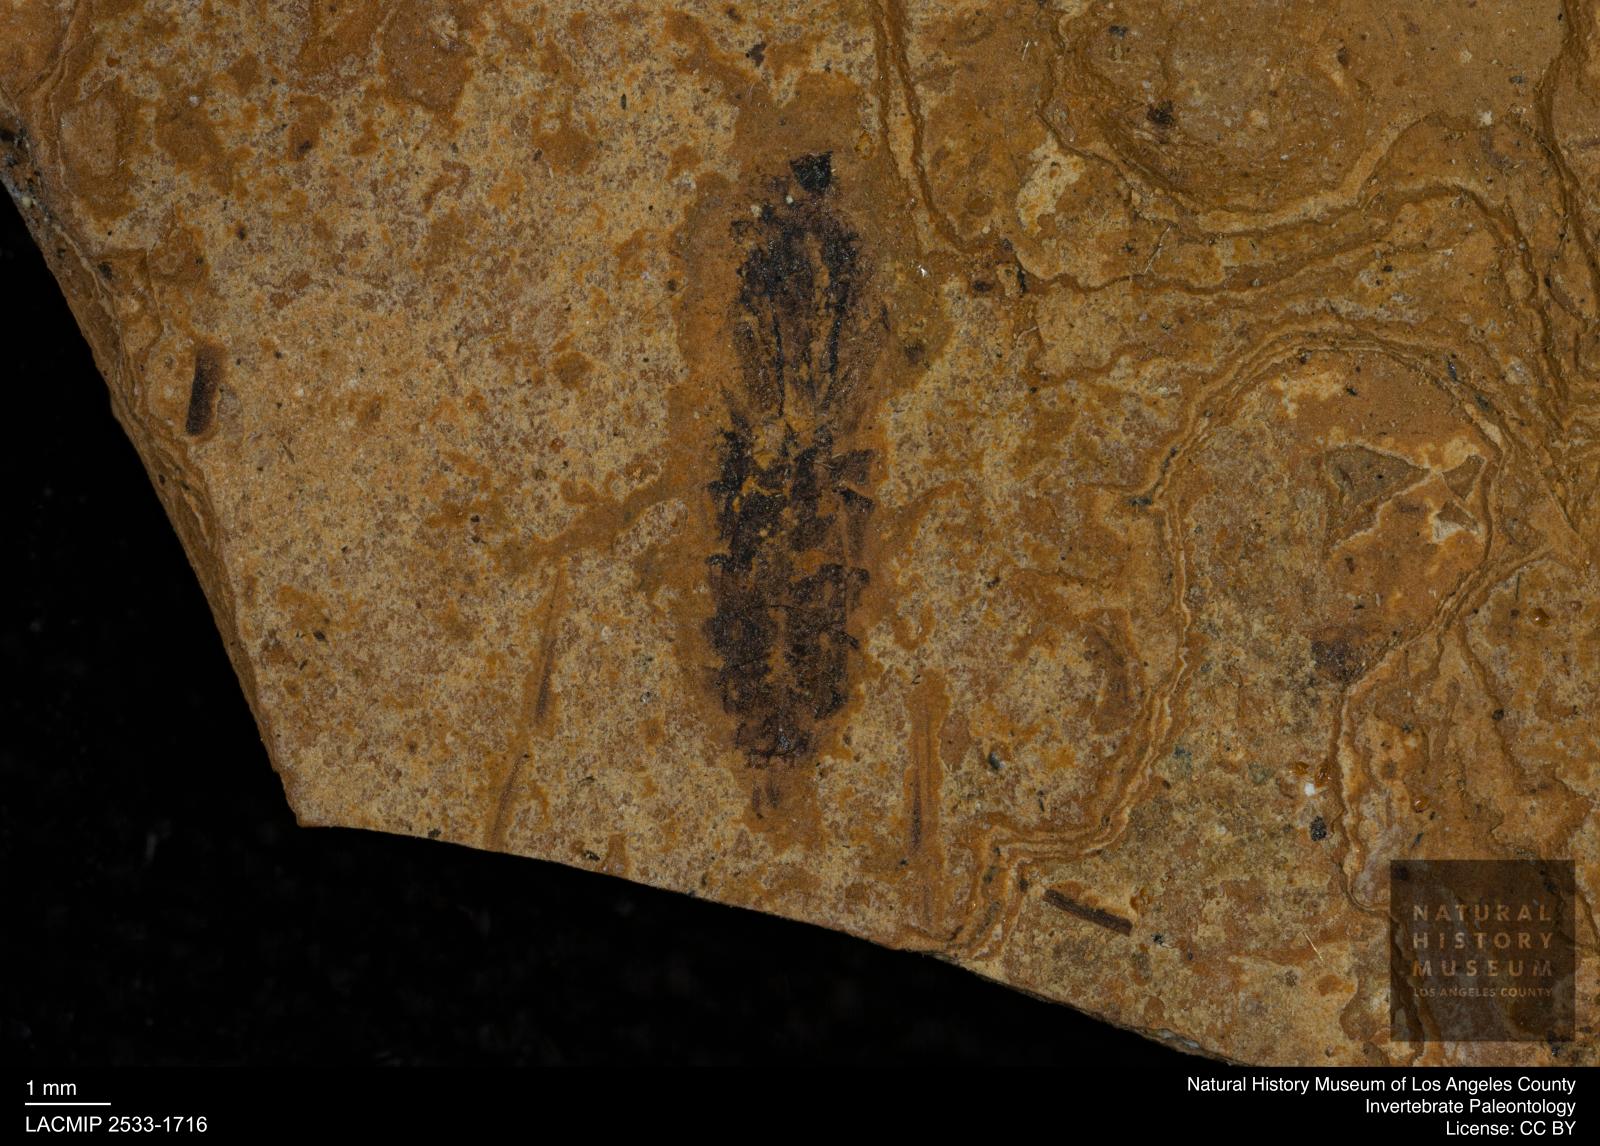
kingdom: Animalia
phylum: Arthropoda
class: Insecta
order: Hemiptera
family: Notonectidae
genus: Notonecta
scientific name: Notonecta
